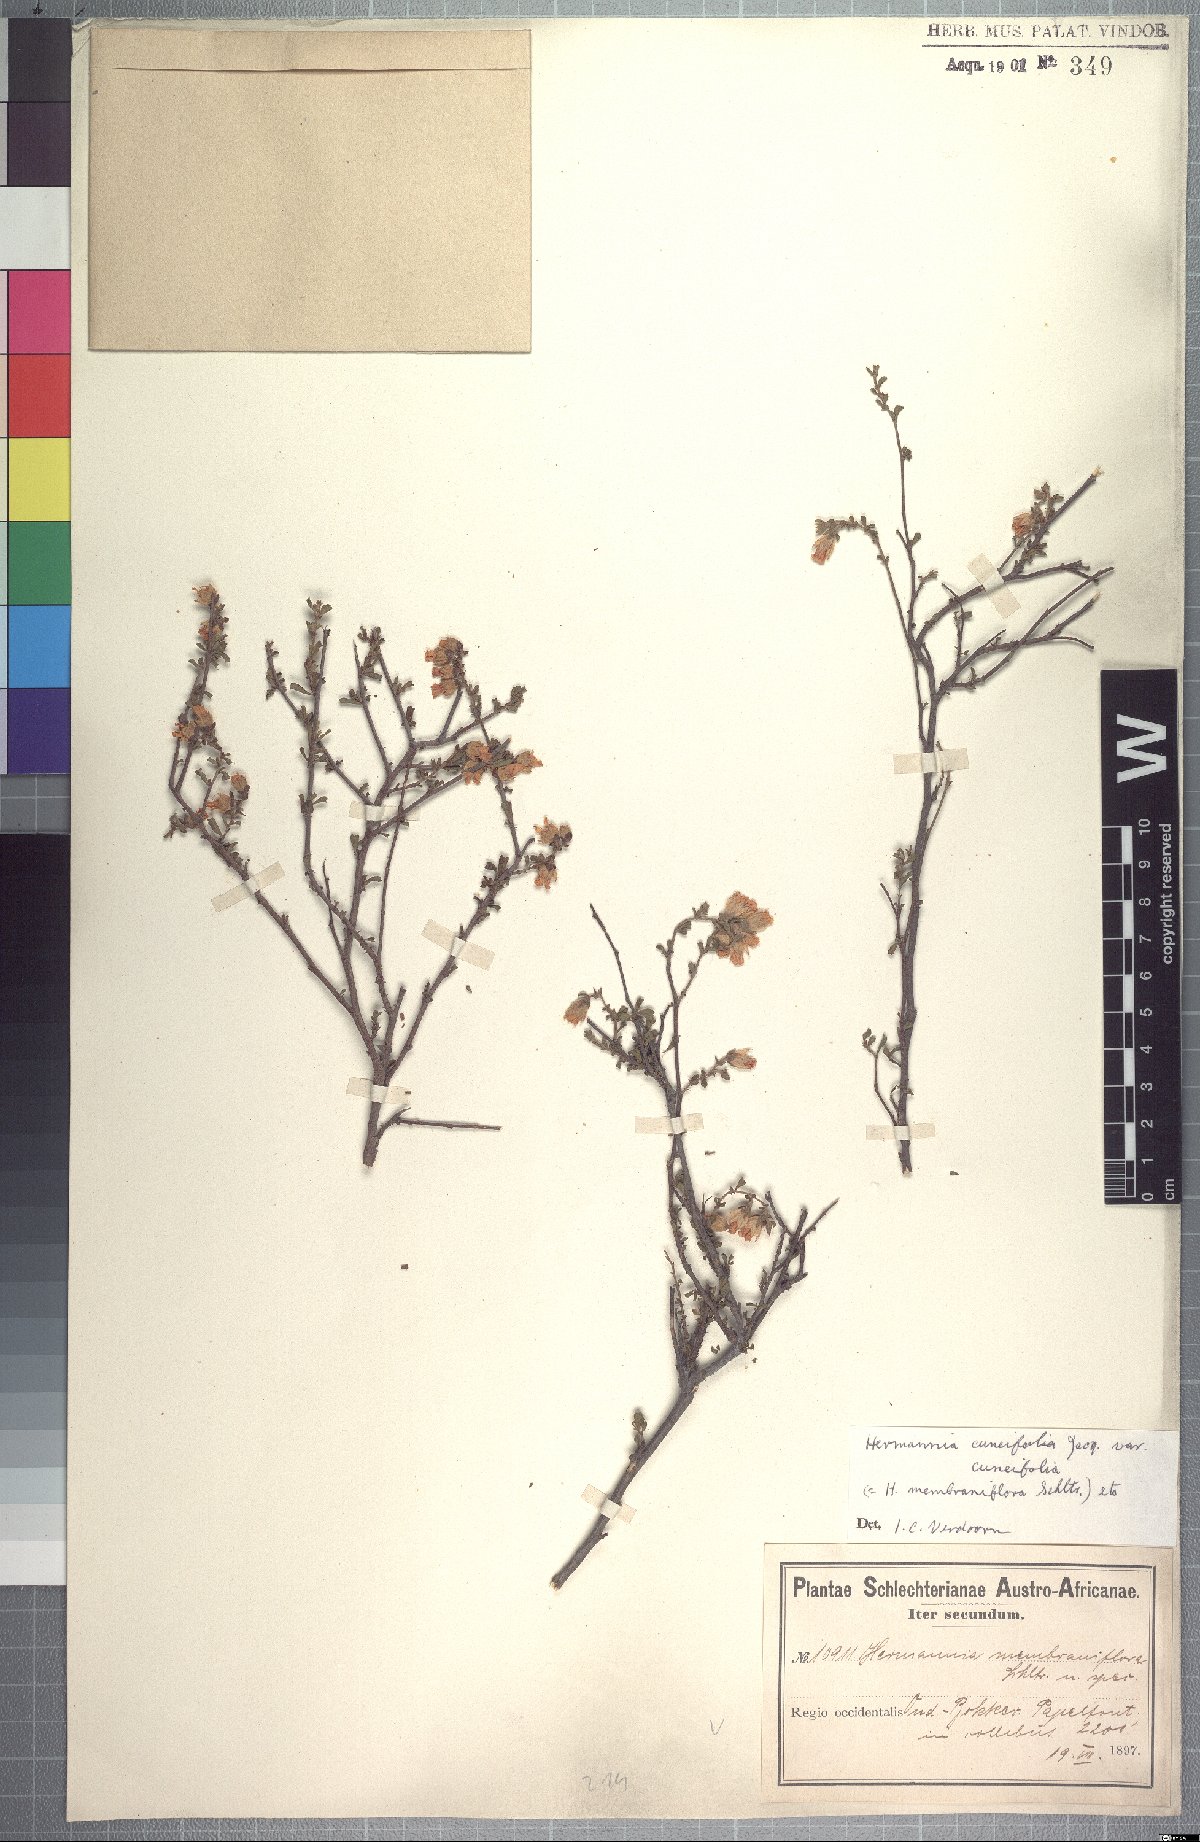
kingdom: Plantae
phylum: Tracheophyta
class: Magnoliopsida
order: Malvales
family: Malvaceae
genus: Hermannia
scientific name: Hermannia cuneifolia
